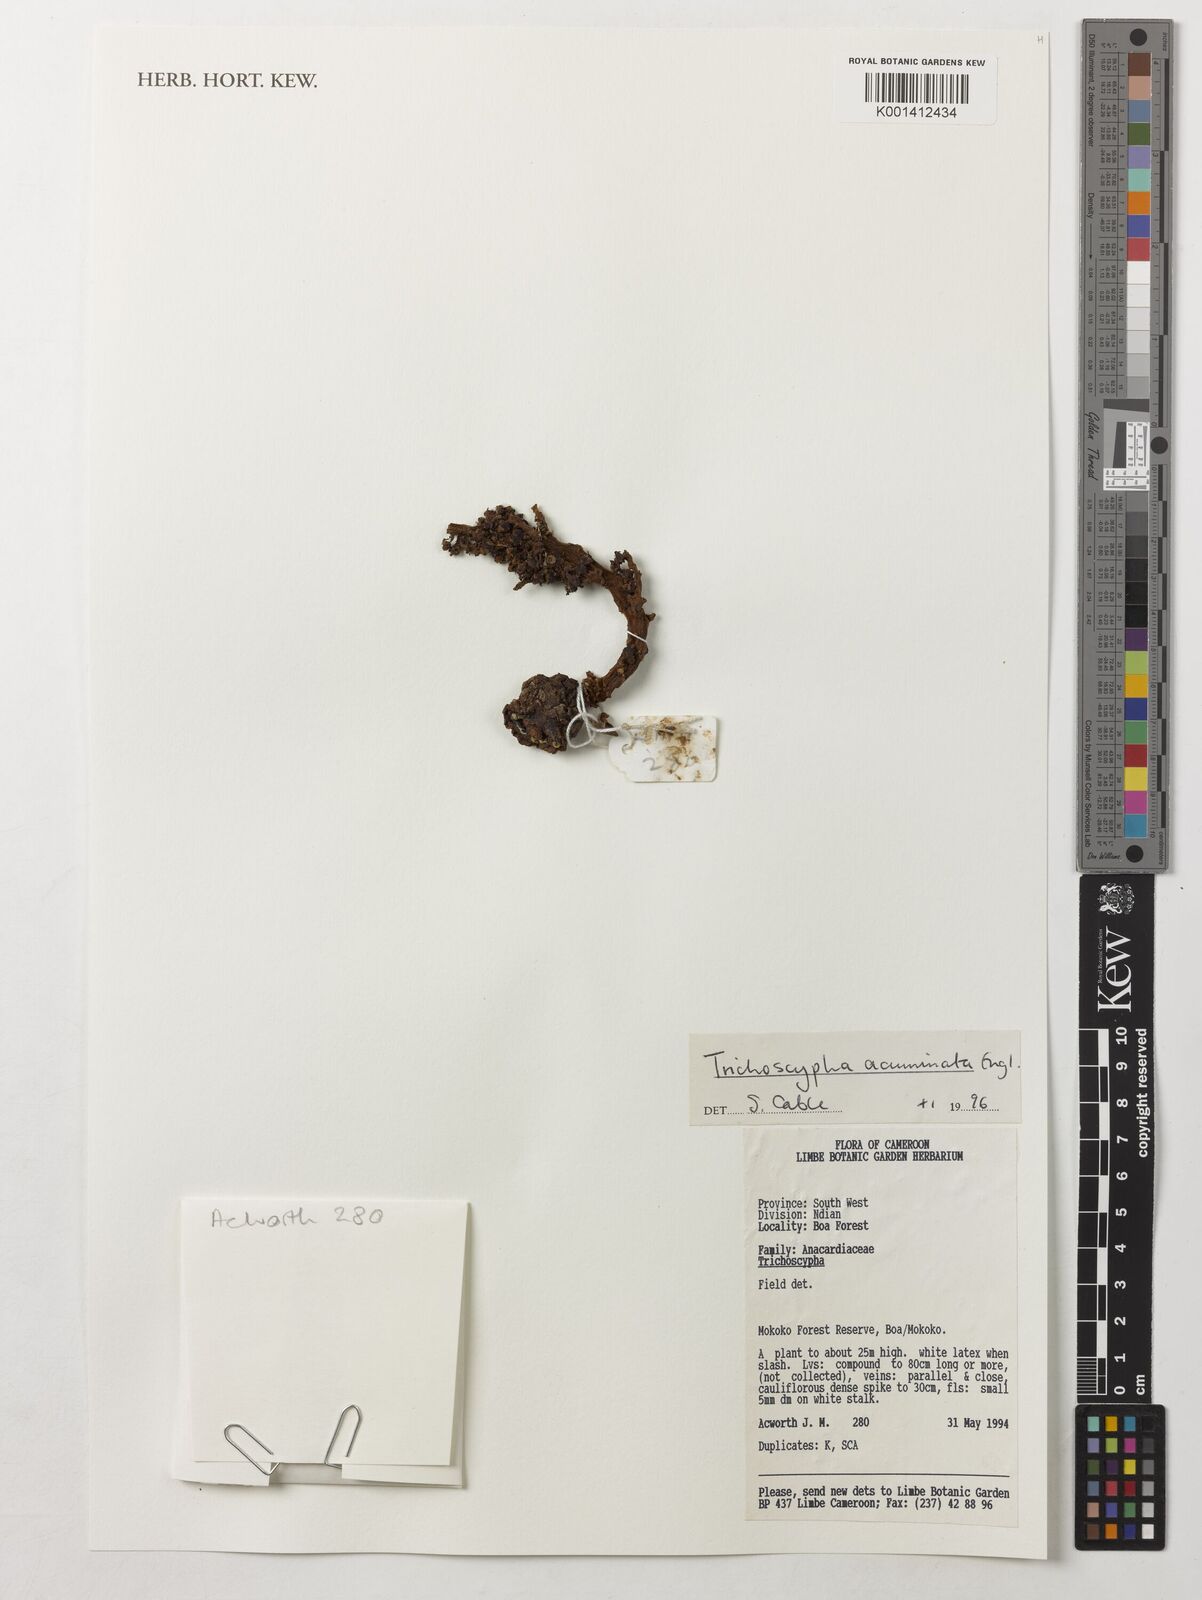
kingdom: Plantae
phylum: Tracheophyta
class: Magnoliopsida
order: Sapindales
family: Anacardiaceae
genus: Trichoscypha
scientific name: Trichoscypha acuminata
